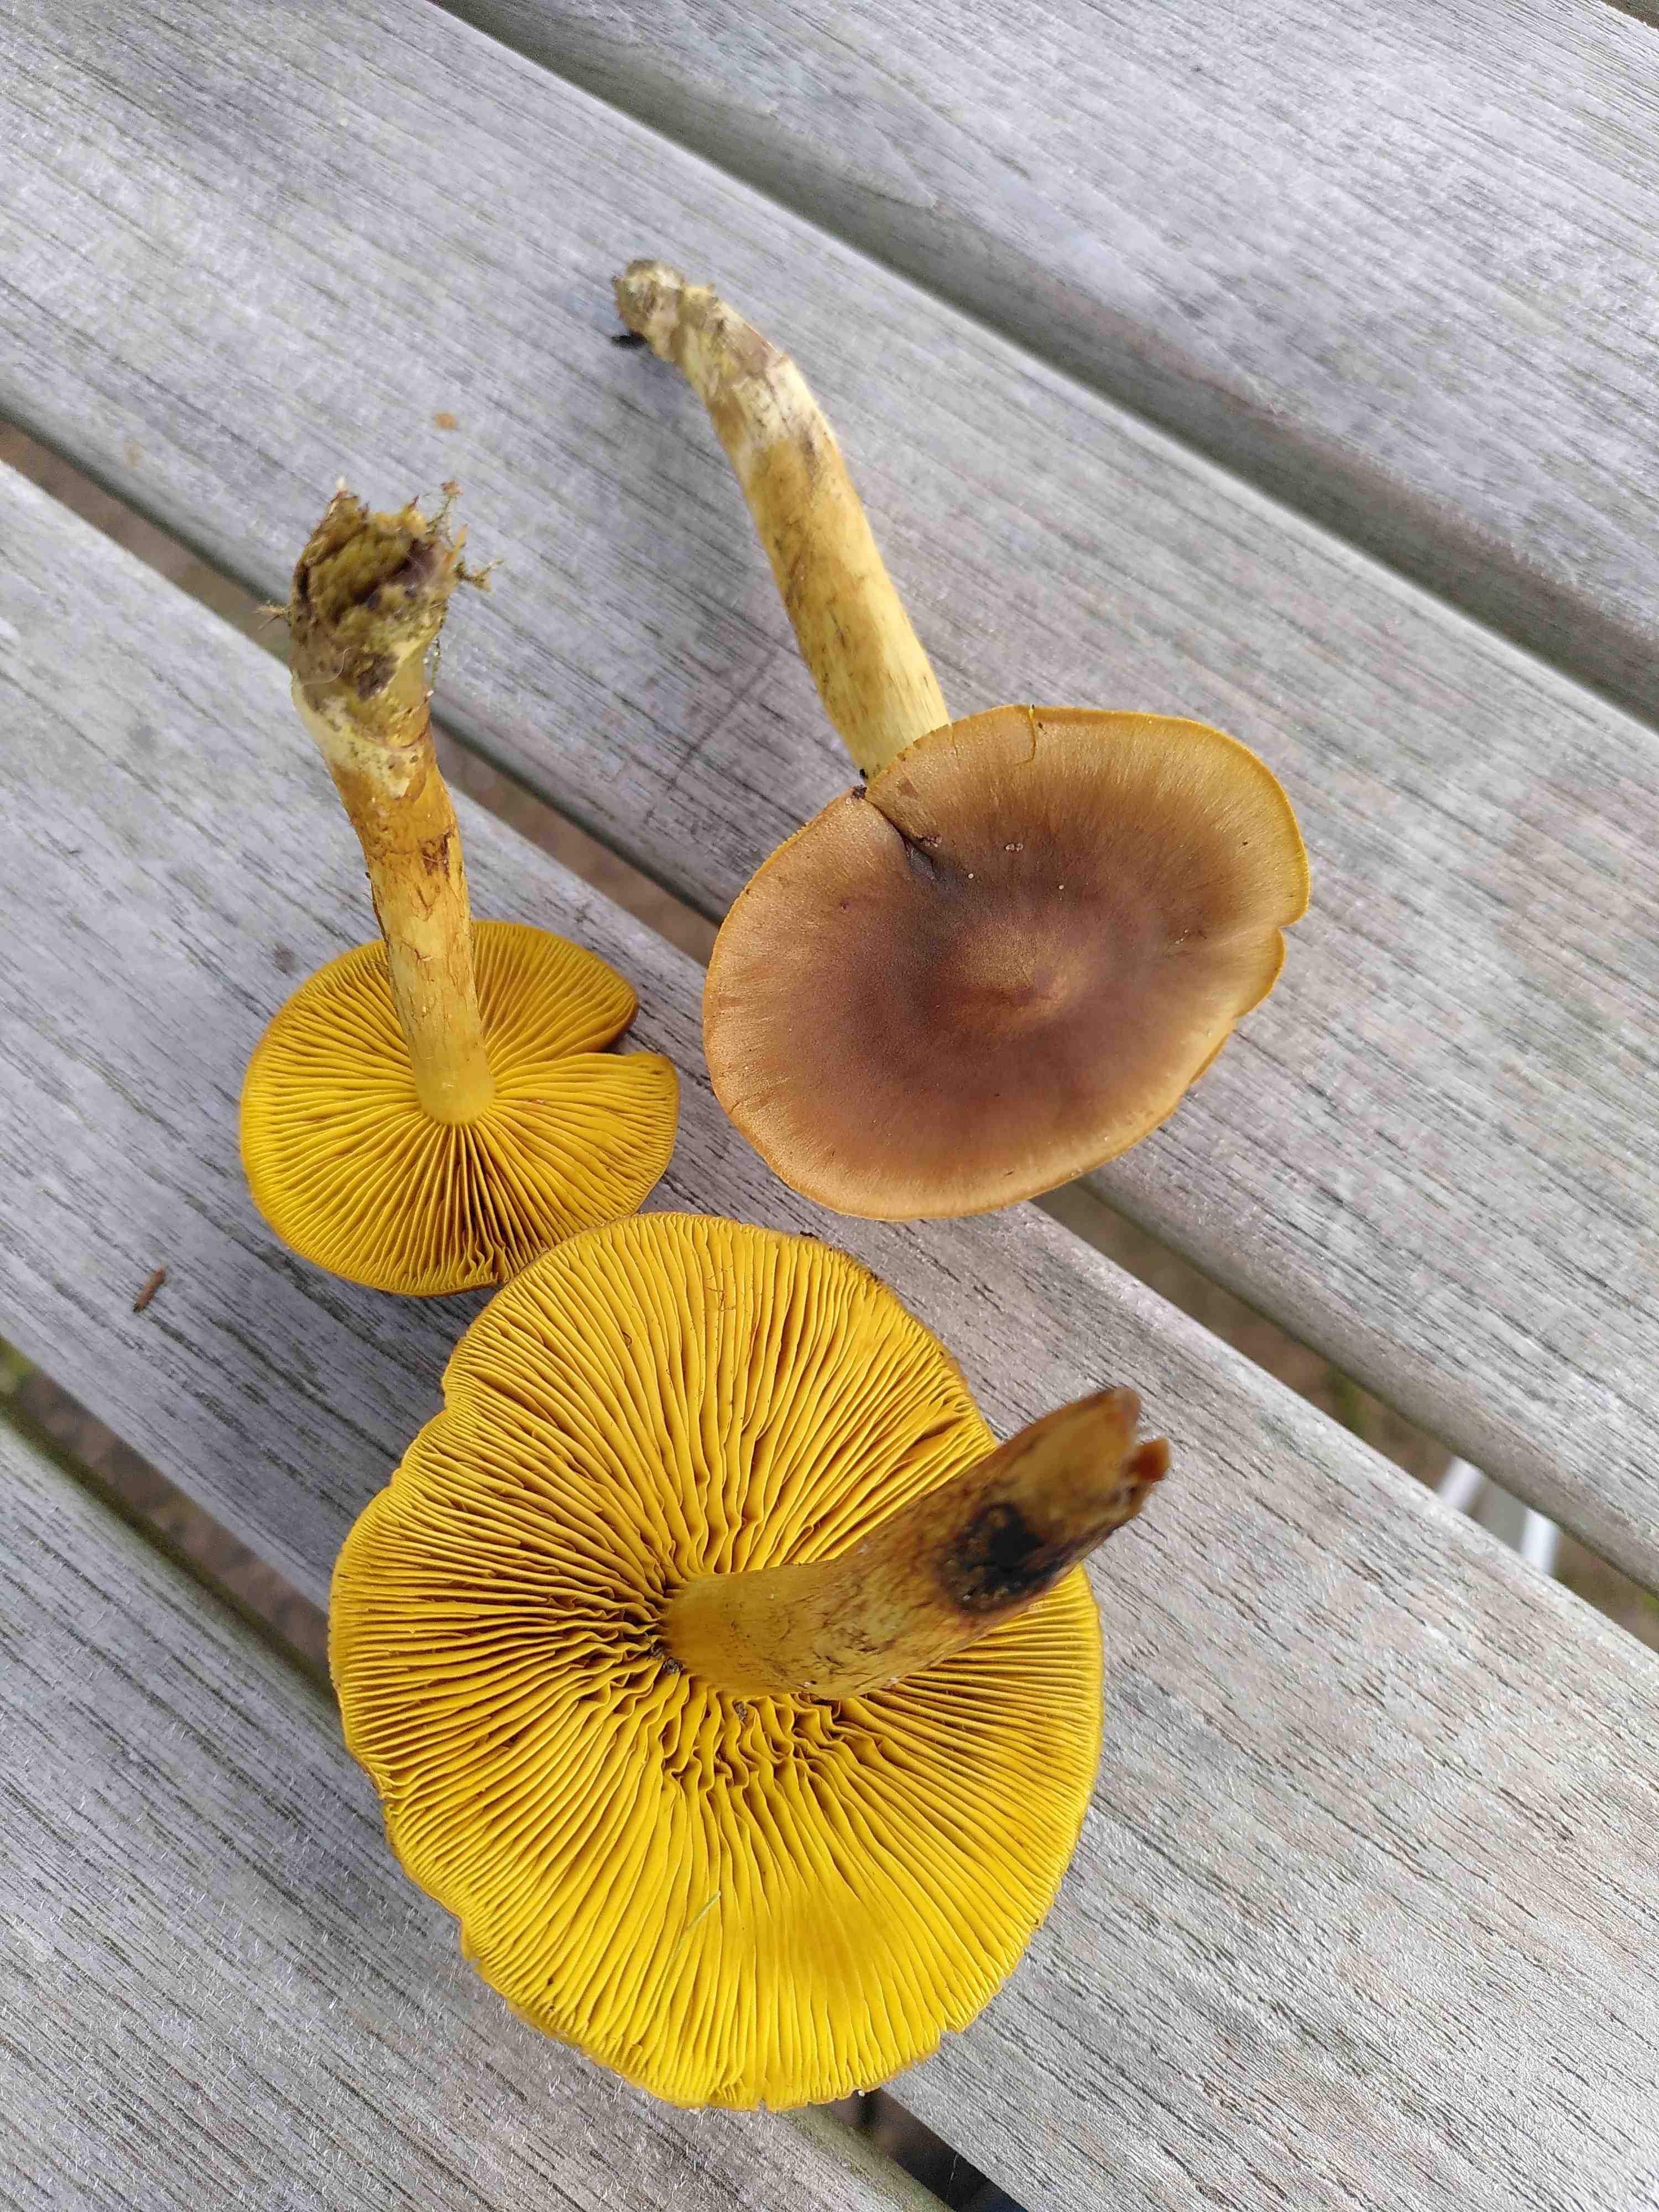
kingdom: Fungi
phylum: Basidiomycota
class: Agaricomycetes
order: Agaricales
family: Cortinariaceae
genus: Cortinarius
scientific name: Cortinarius
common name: gulbladet slørhat
